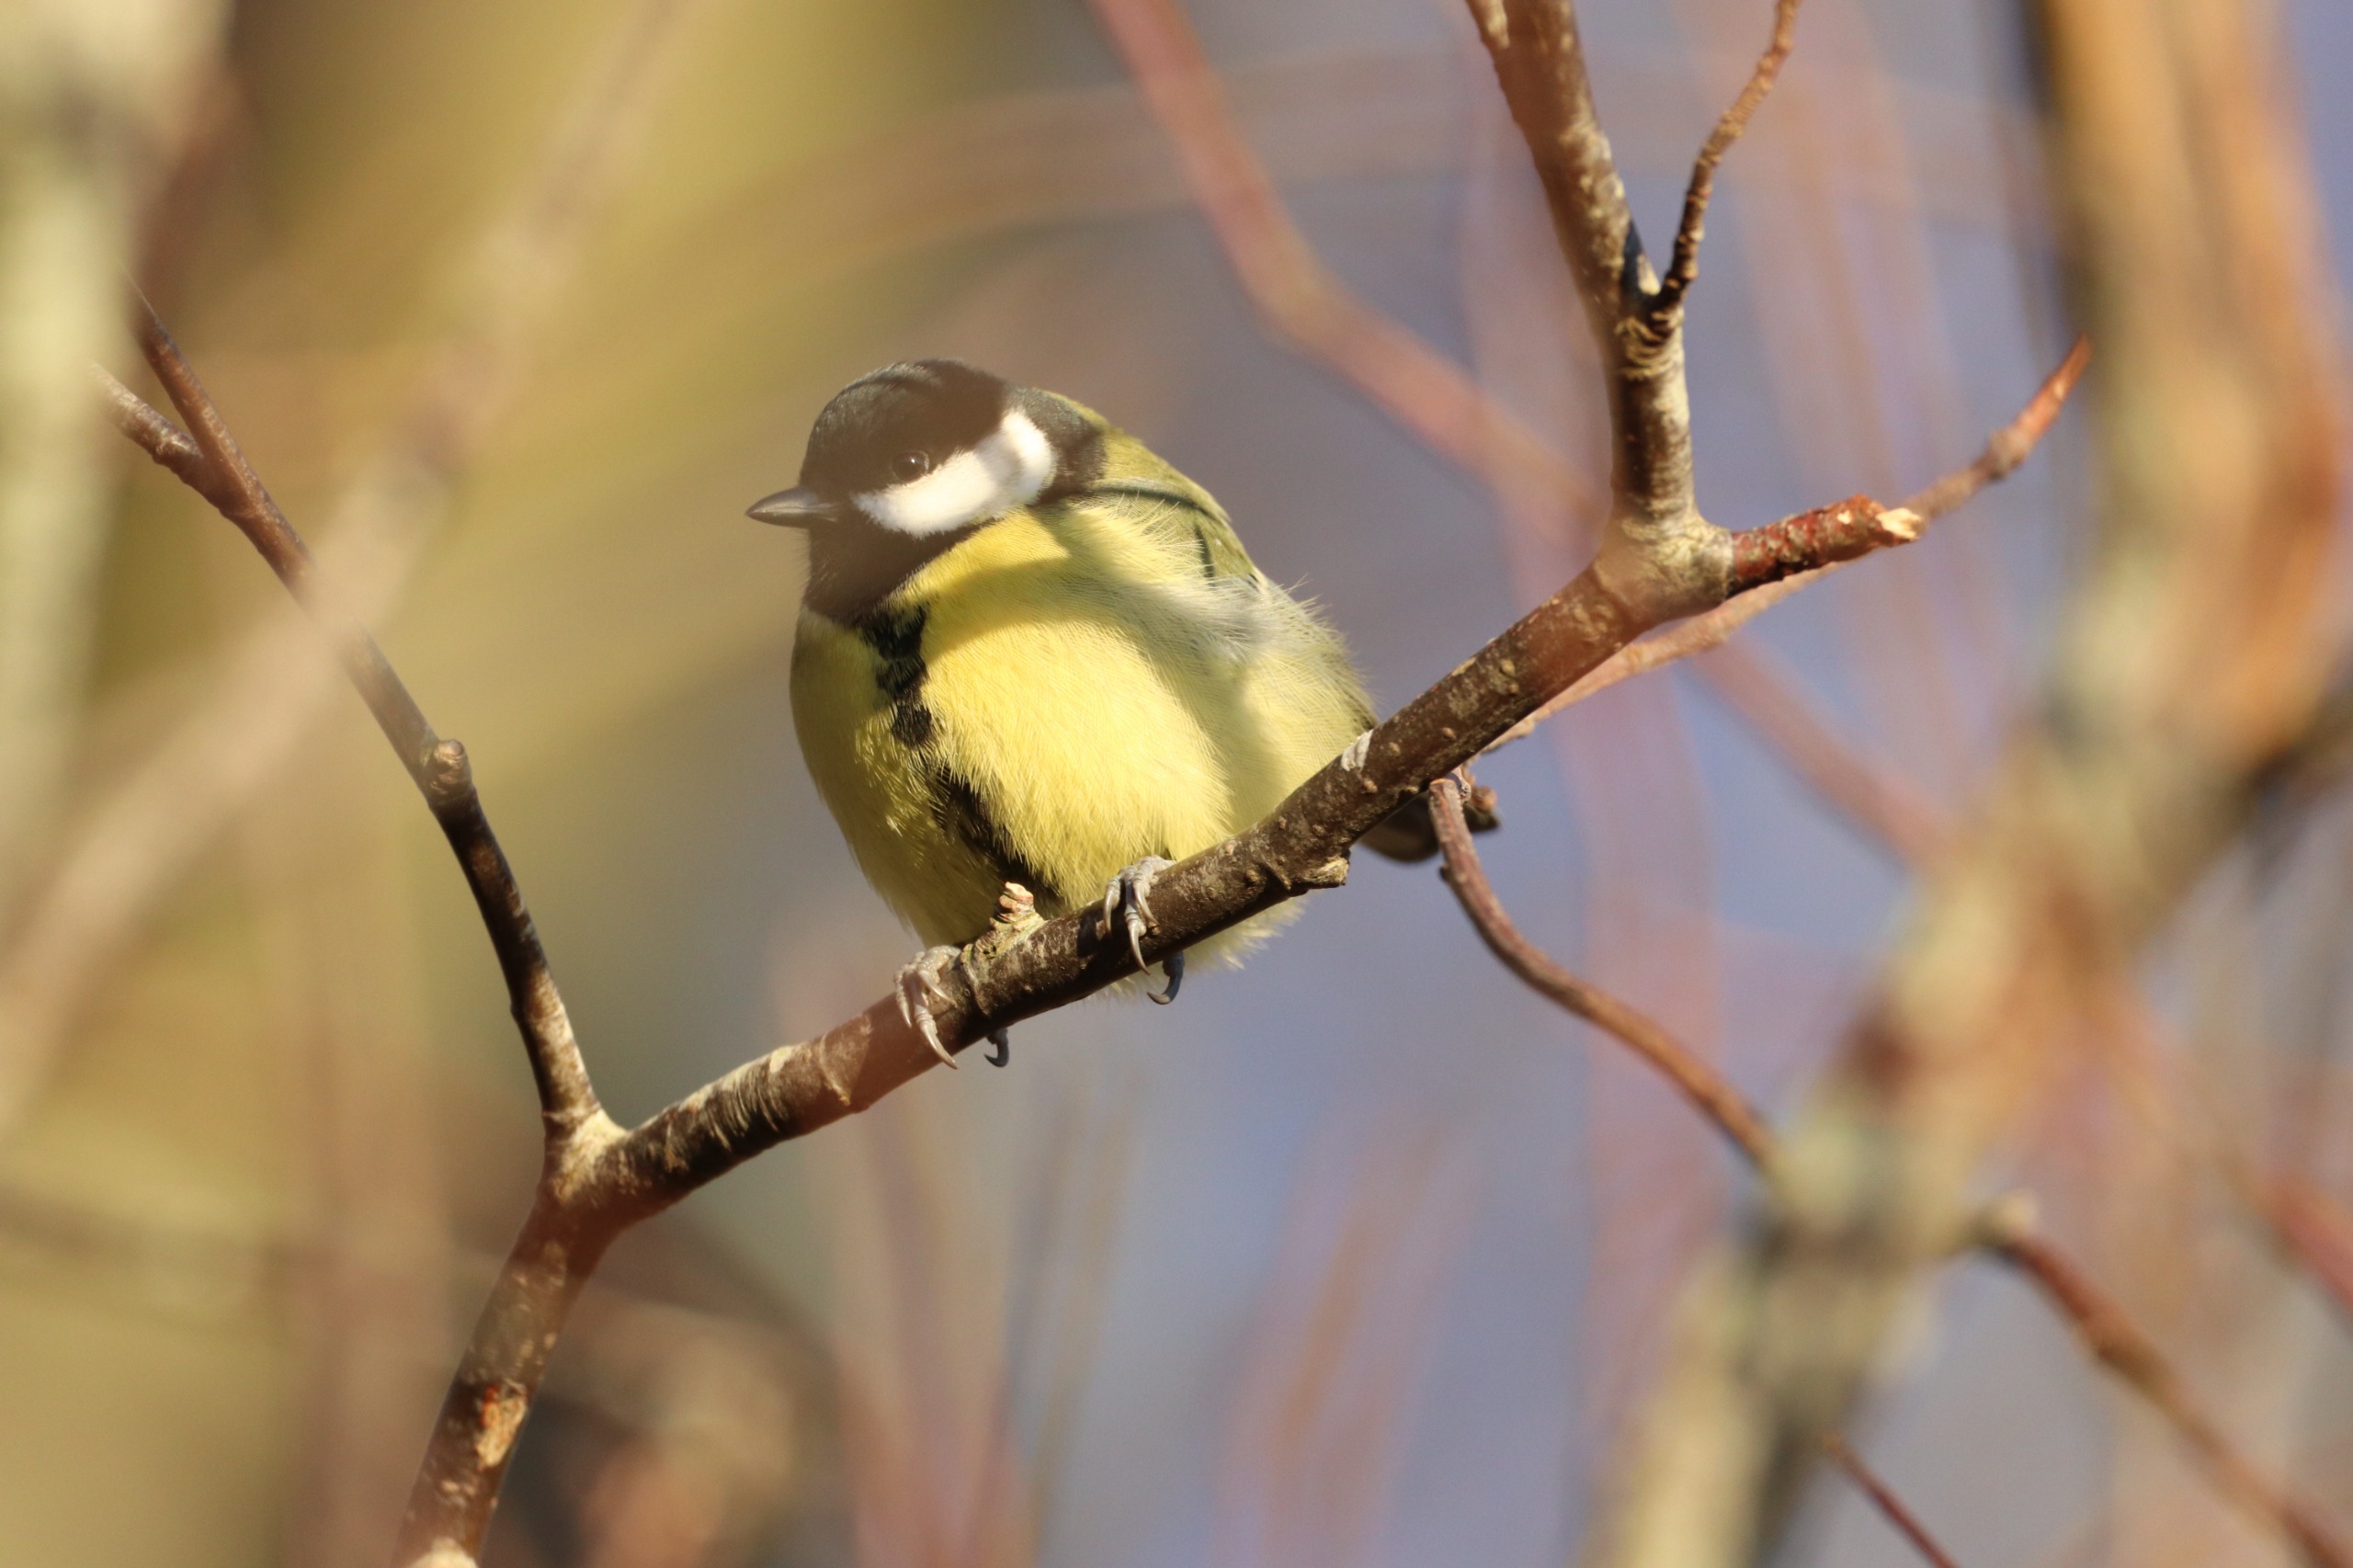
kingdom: Animalia
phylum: Chordata
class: Aves
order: Passeriformes
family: Paridae
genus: Parus
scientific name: Parus major
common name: Musvit
